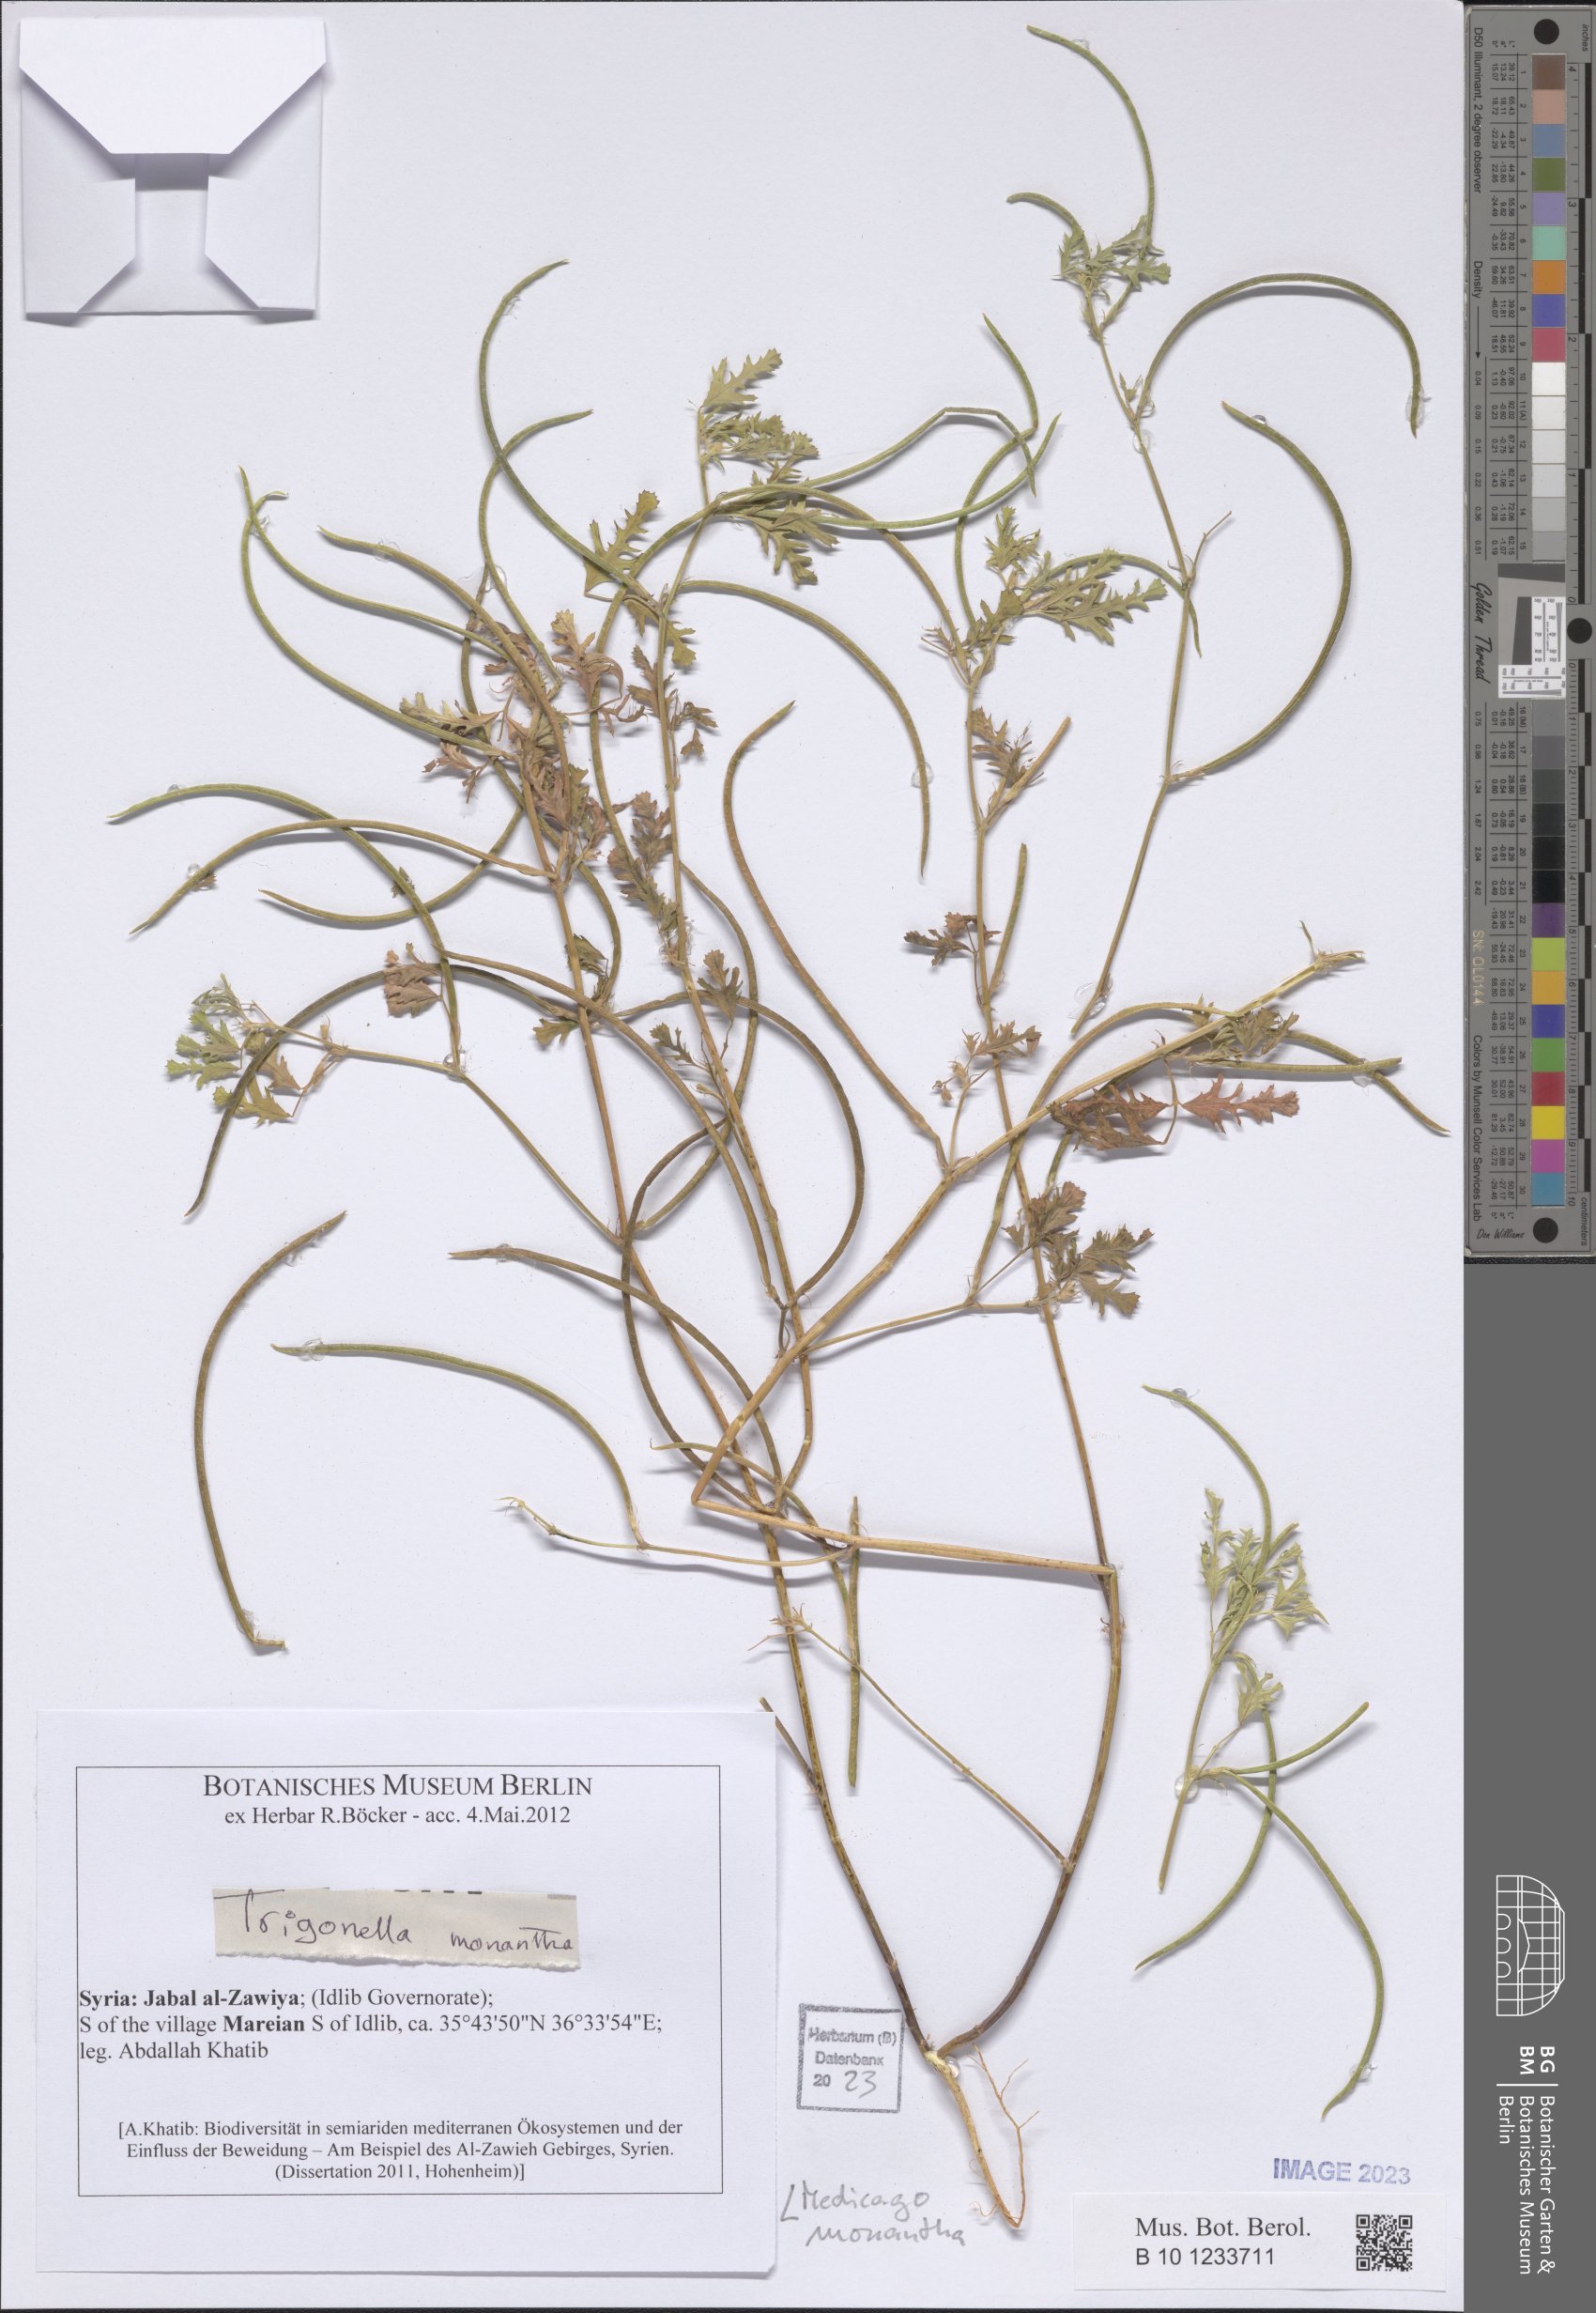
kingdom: Plantae
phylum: Tracheophyta
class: Magnoliopsida
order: Fabales
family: Fabaceae
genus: Medicago
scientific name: Medicago monantha
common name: Medick
